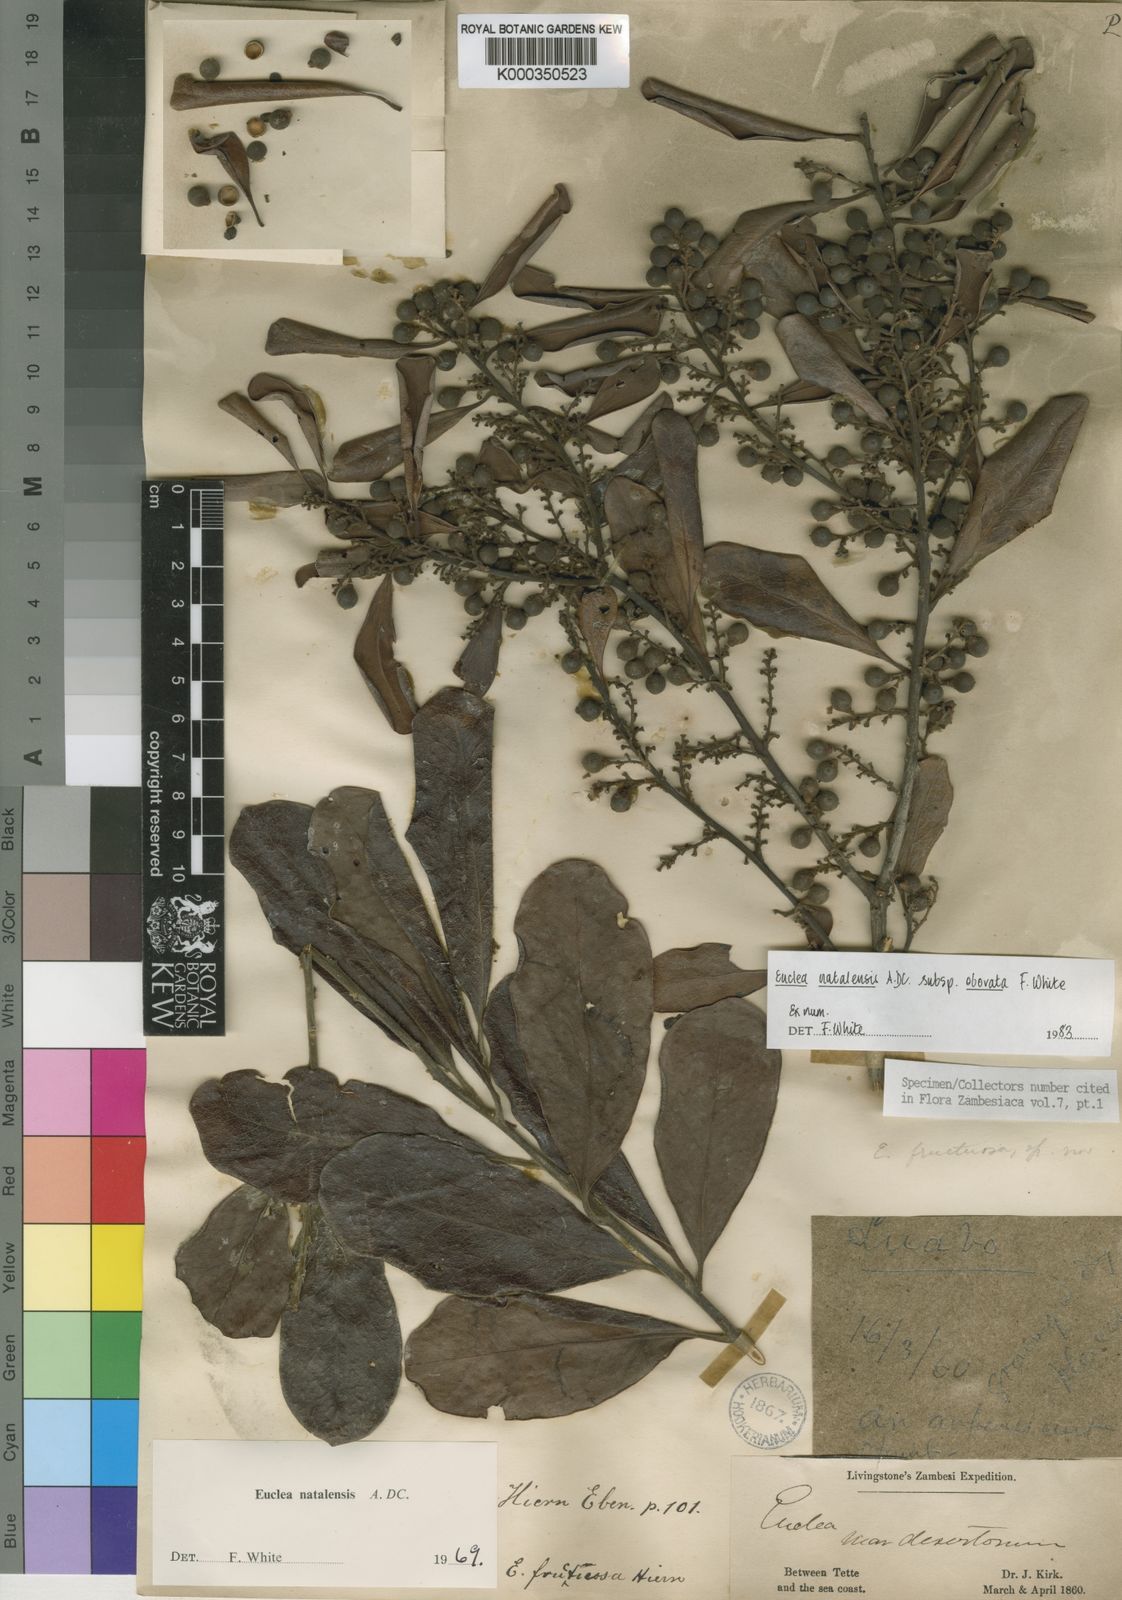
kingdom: Plantae
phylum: Tracheophyta
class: Magnoliopsida
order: Ericales
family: Ebenaceae
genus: Euclea
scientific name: Euclea natalensis
